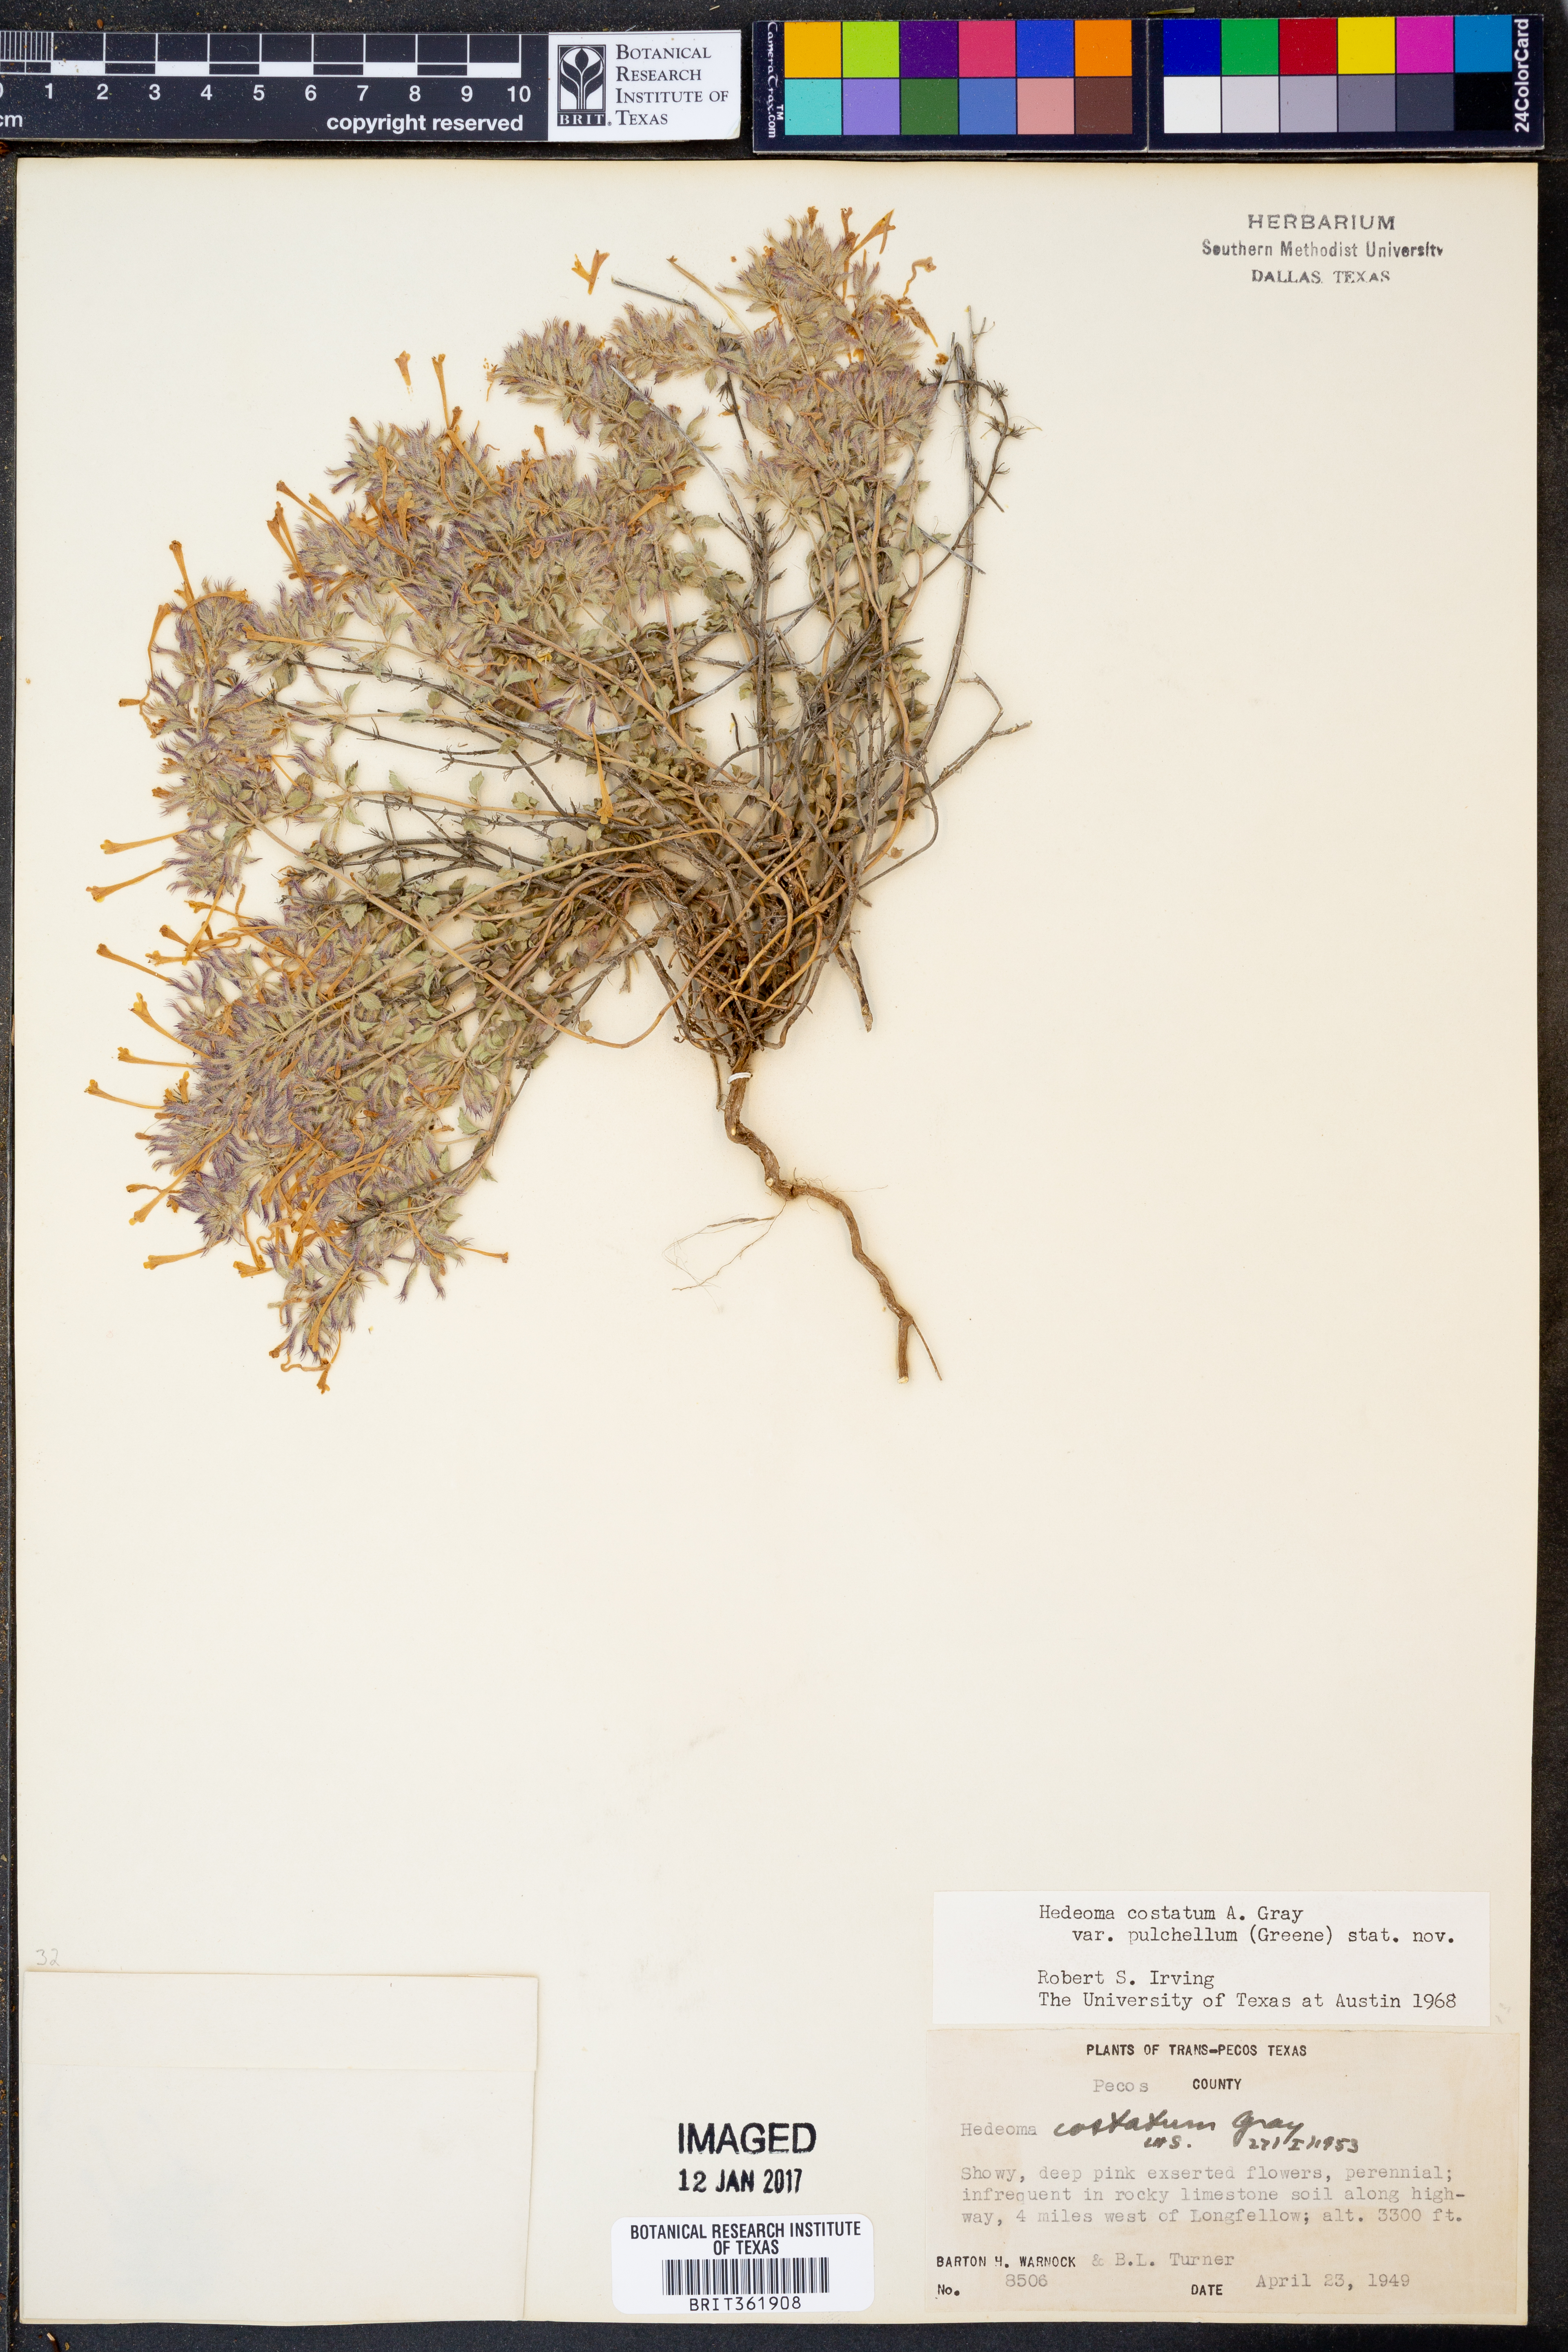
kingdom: Plantae
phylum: Tracheophyta
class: Magnoliopsida
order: Lamiales
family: Lamiaceae
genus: Hedeoma
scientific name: Hedeoma costata
